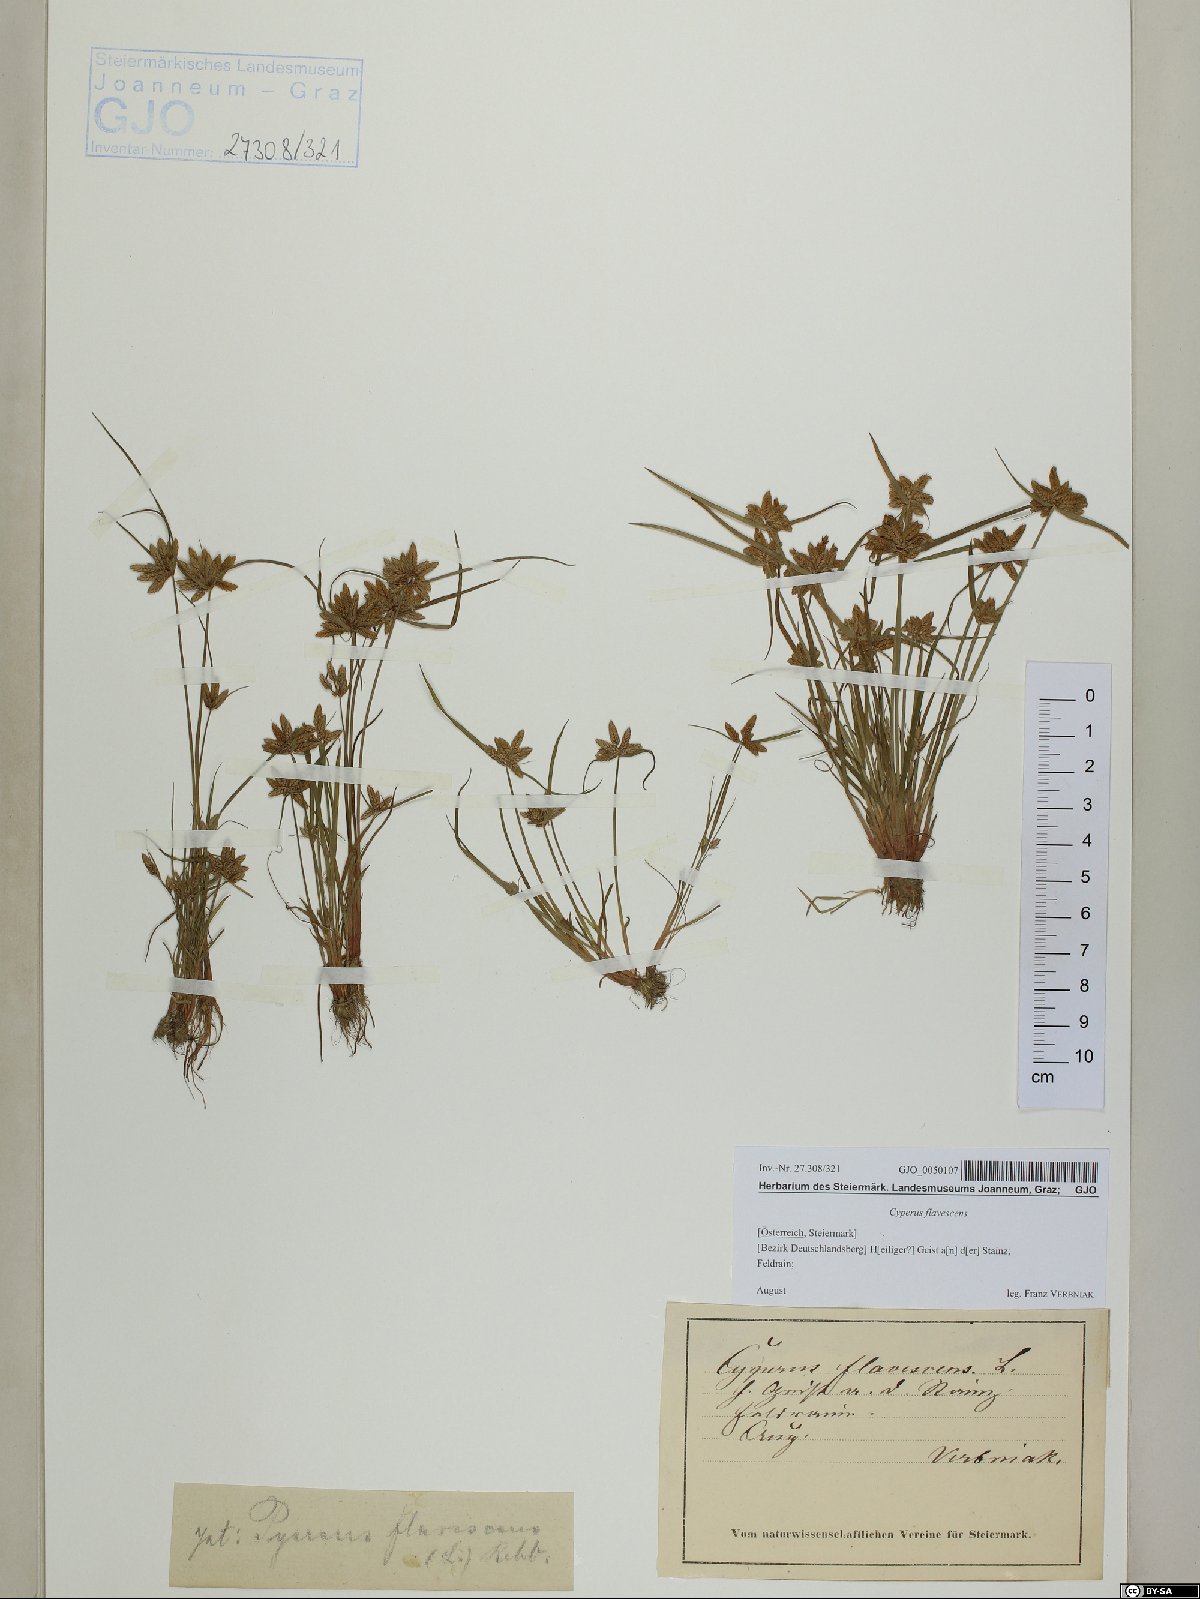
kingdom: Plantae
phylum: Tracheophyta
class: Liliopsida
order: Poales
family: Cyperaceae
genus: Cyperus
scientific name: Cyperus flavescens
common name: Yellow galingale
